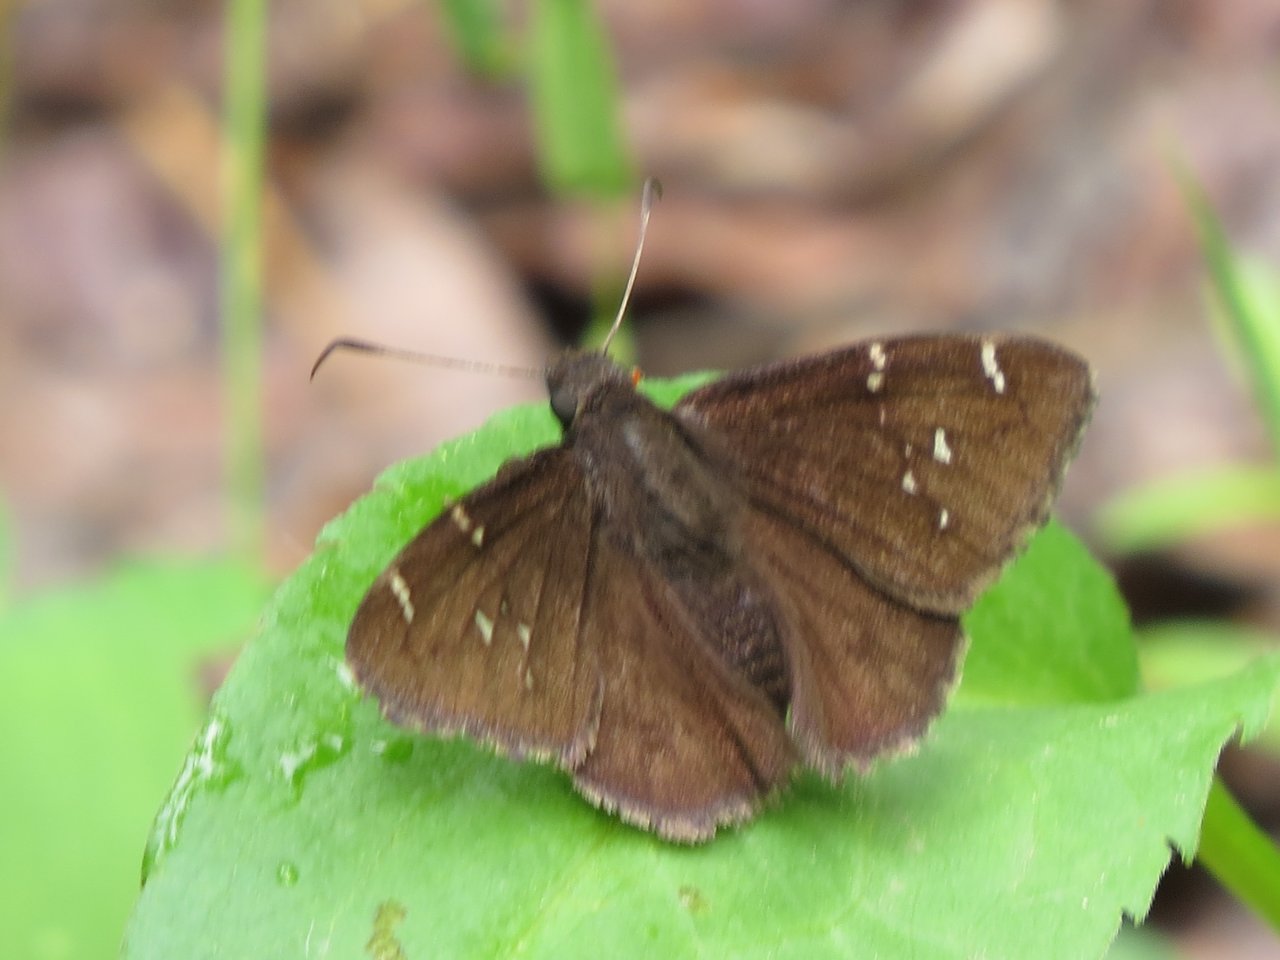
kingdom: Animalia
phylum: Arthropoda
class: Insecta
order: Lepidoptera
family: Hesperiidae
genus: Autochton
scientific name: Autochton
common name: Northern Cloudywing
